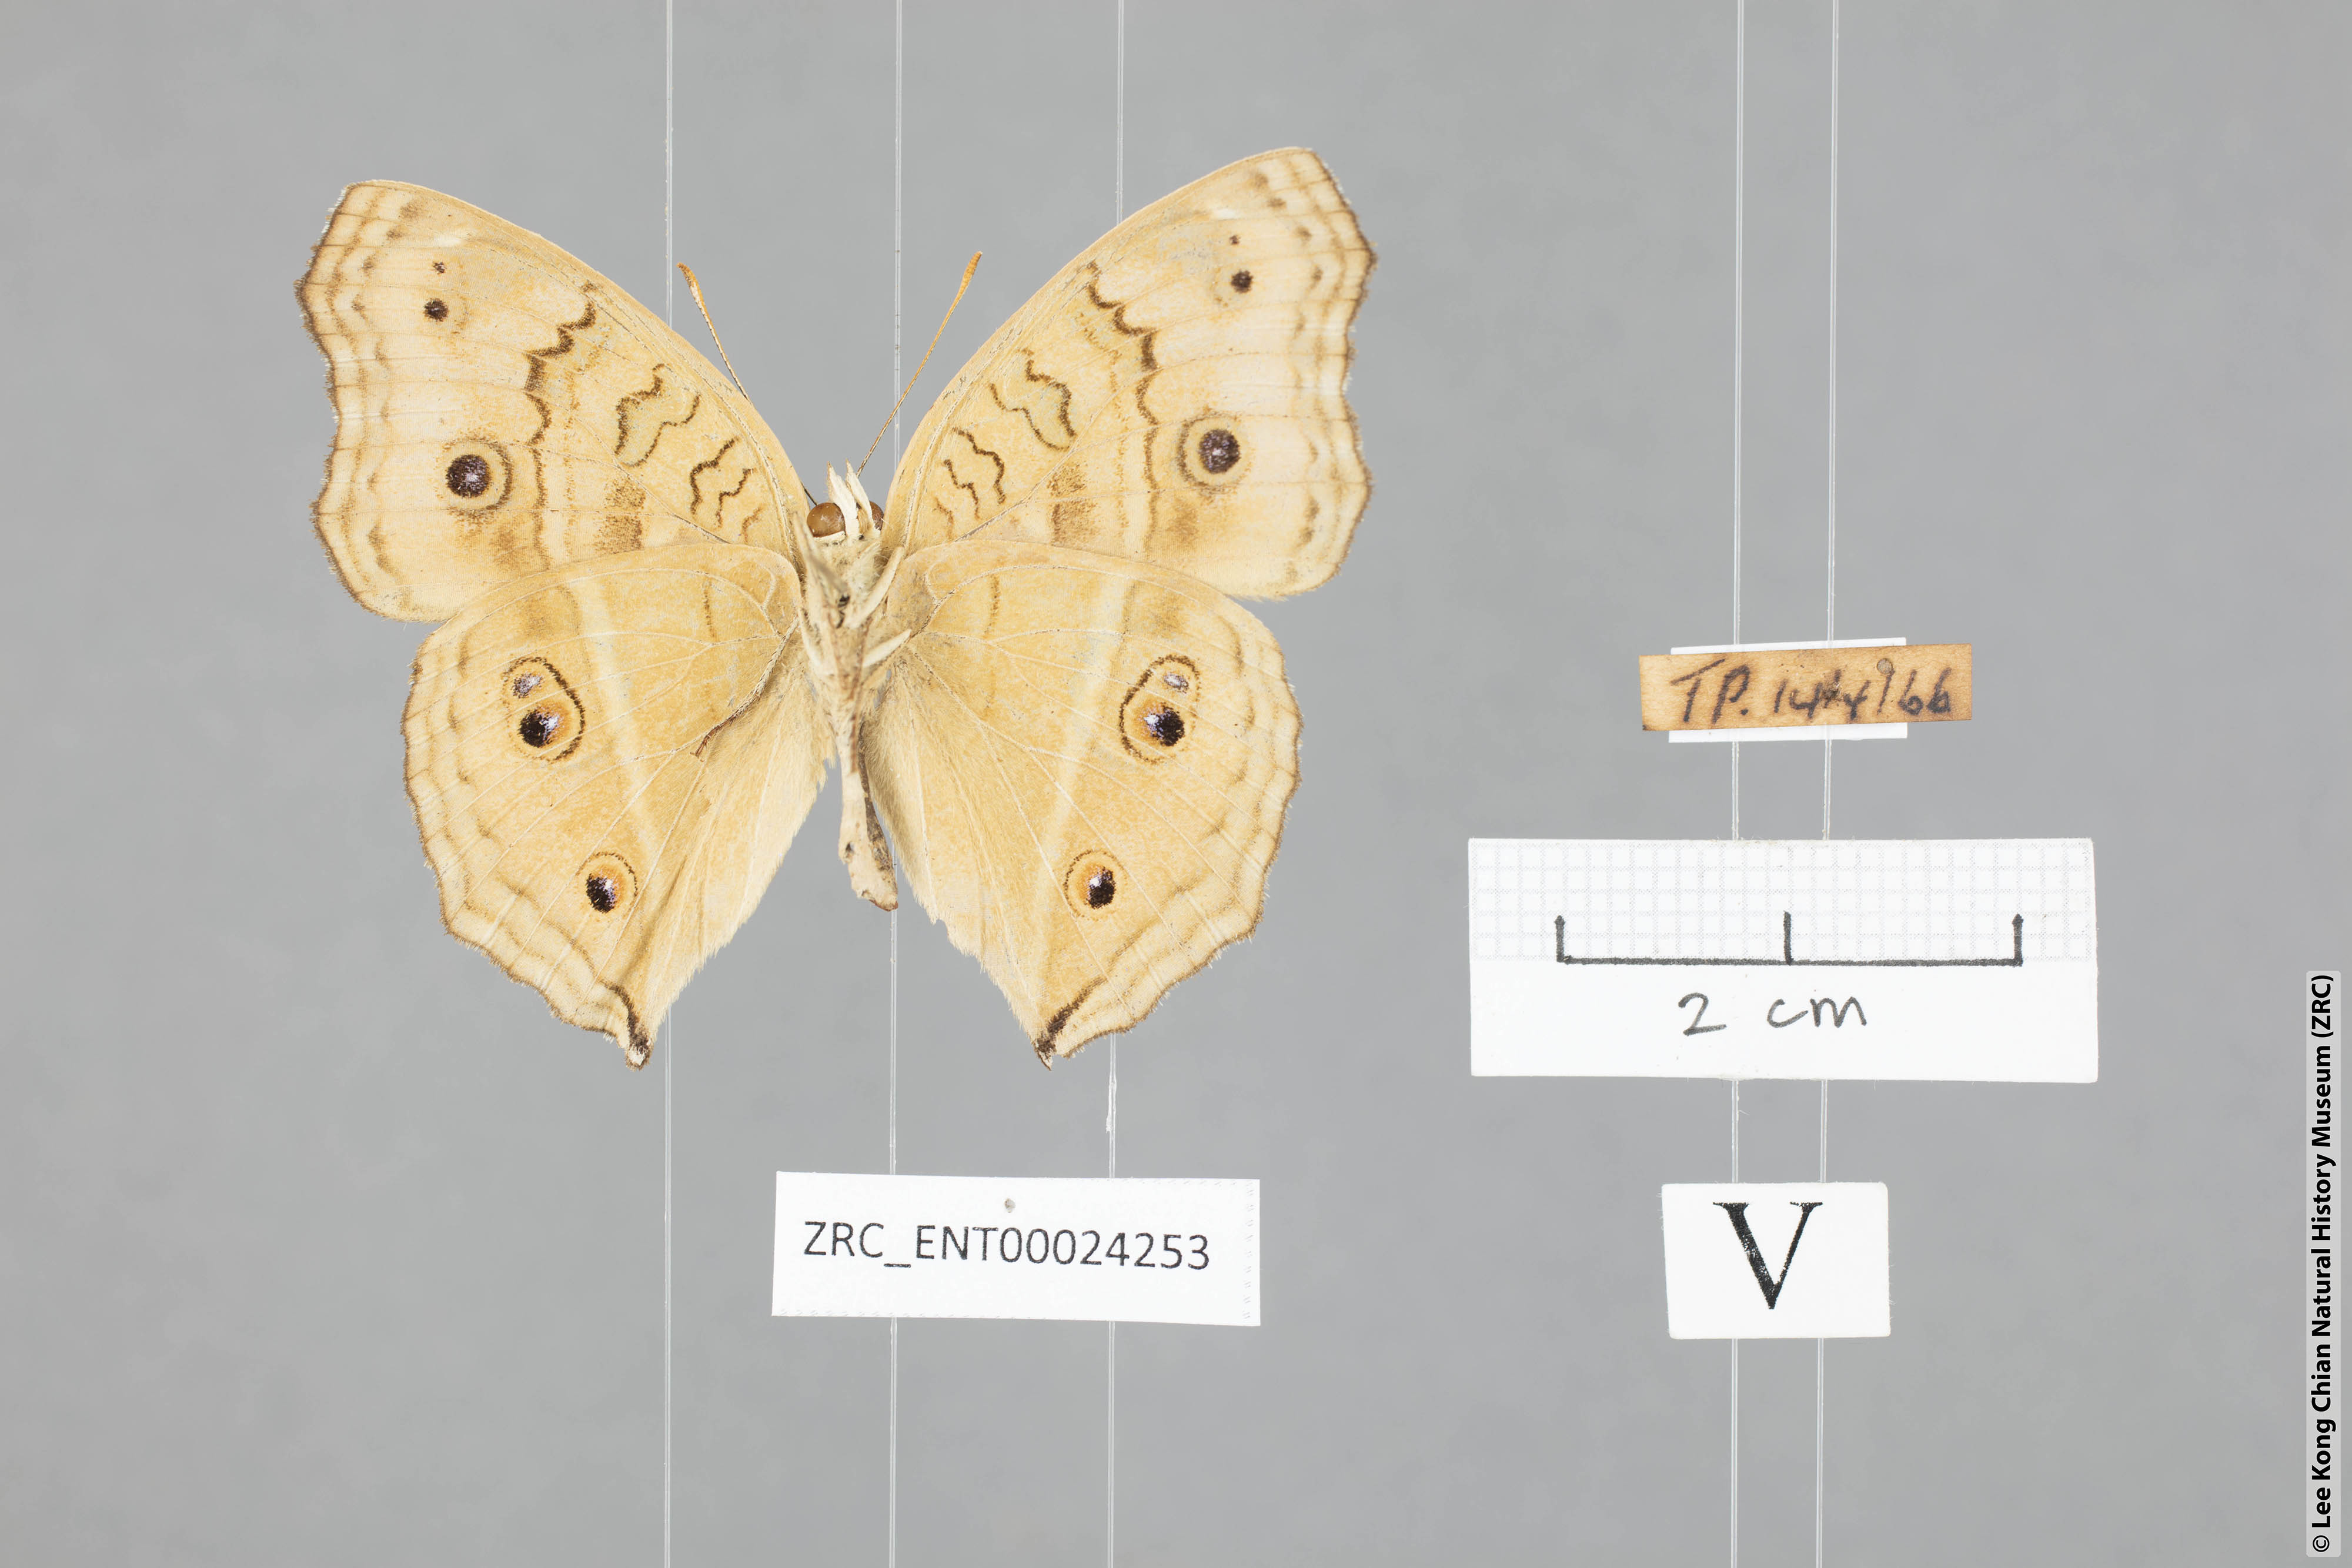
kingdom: Animalia
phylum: Arthropoda
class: Insecta
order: Lepidoptera
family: Nymphalidae
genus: Junonia
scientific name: Junonia almana
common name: Peacock pansy
